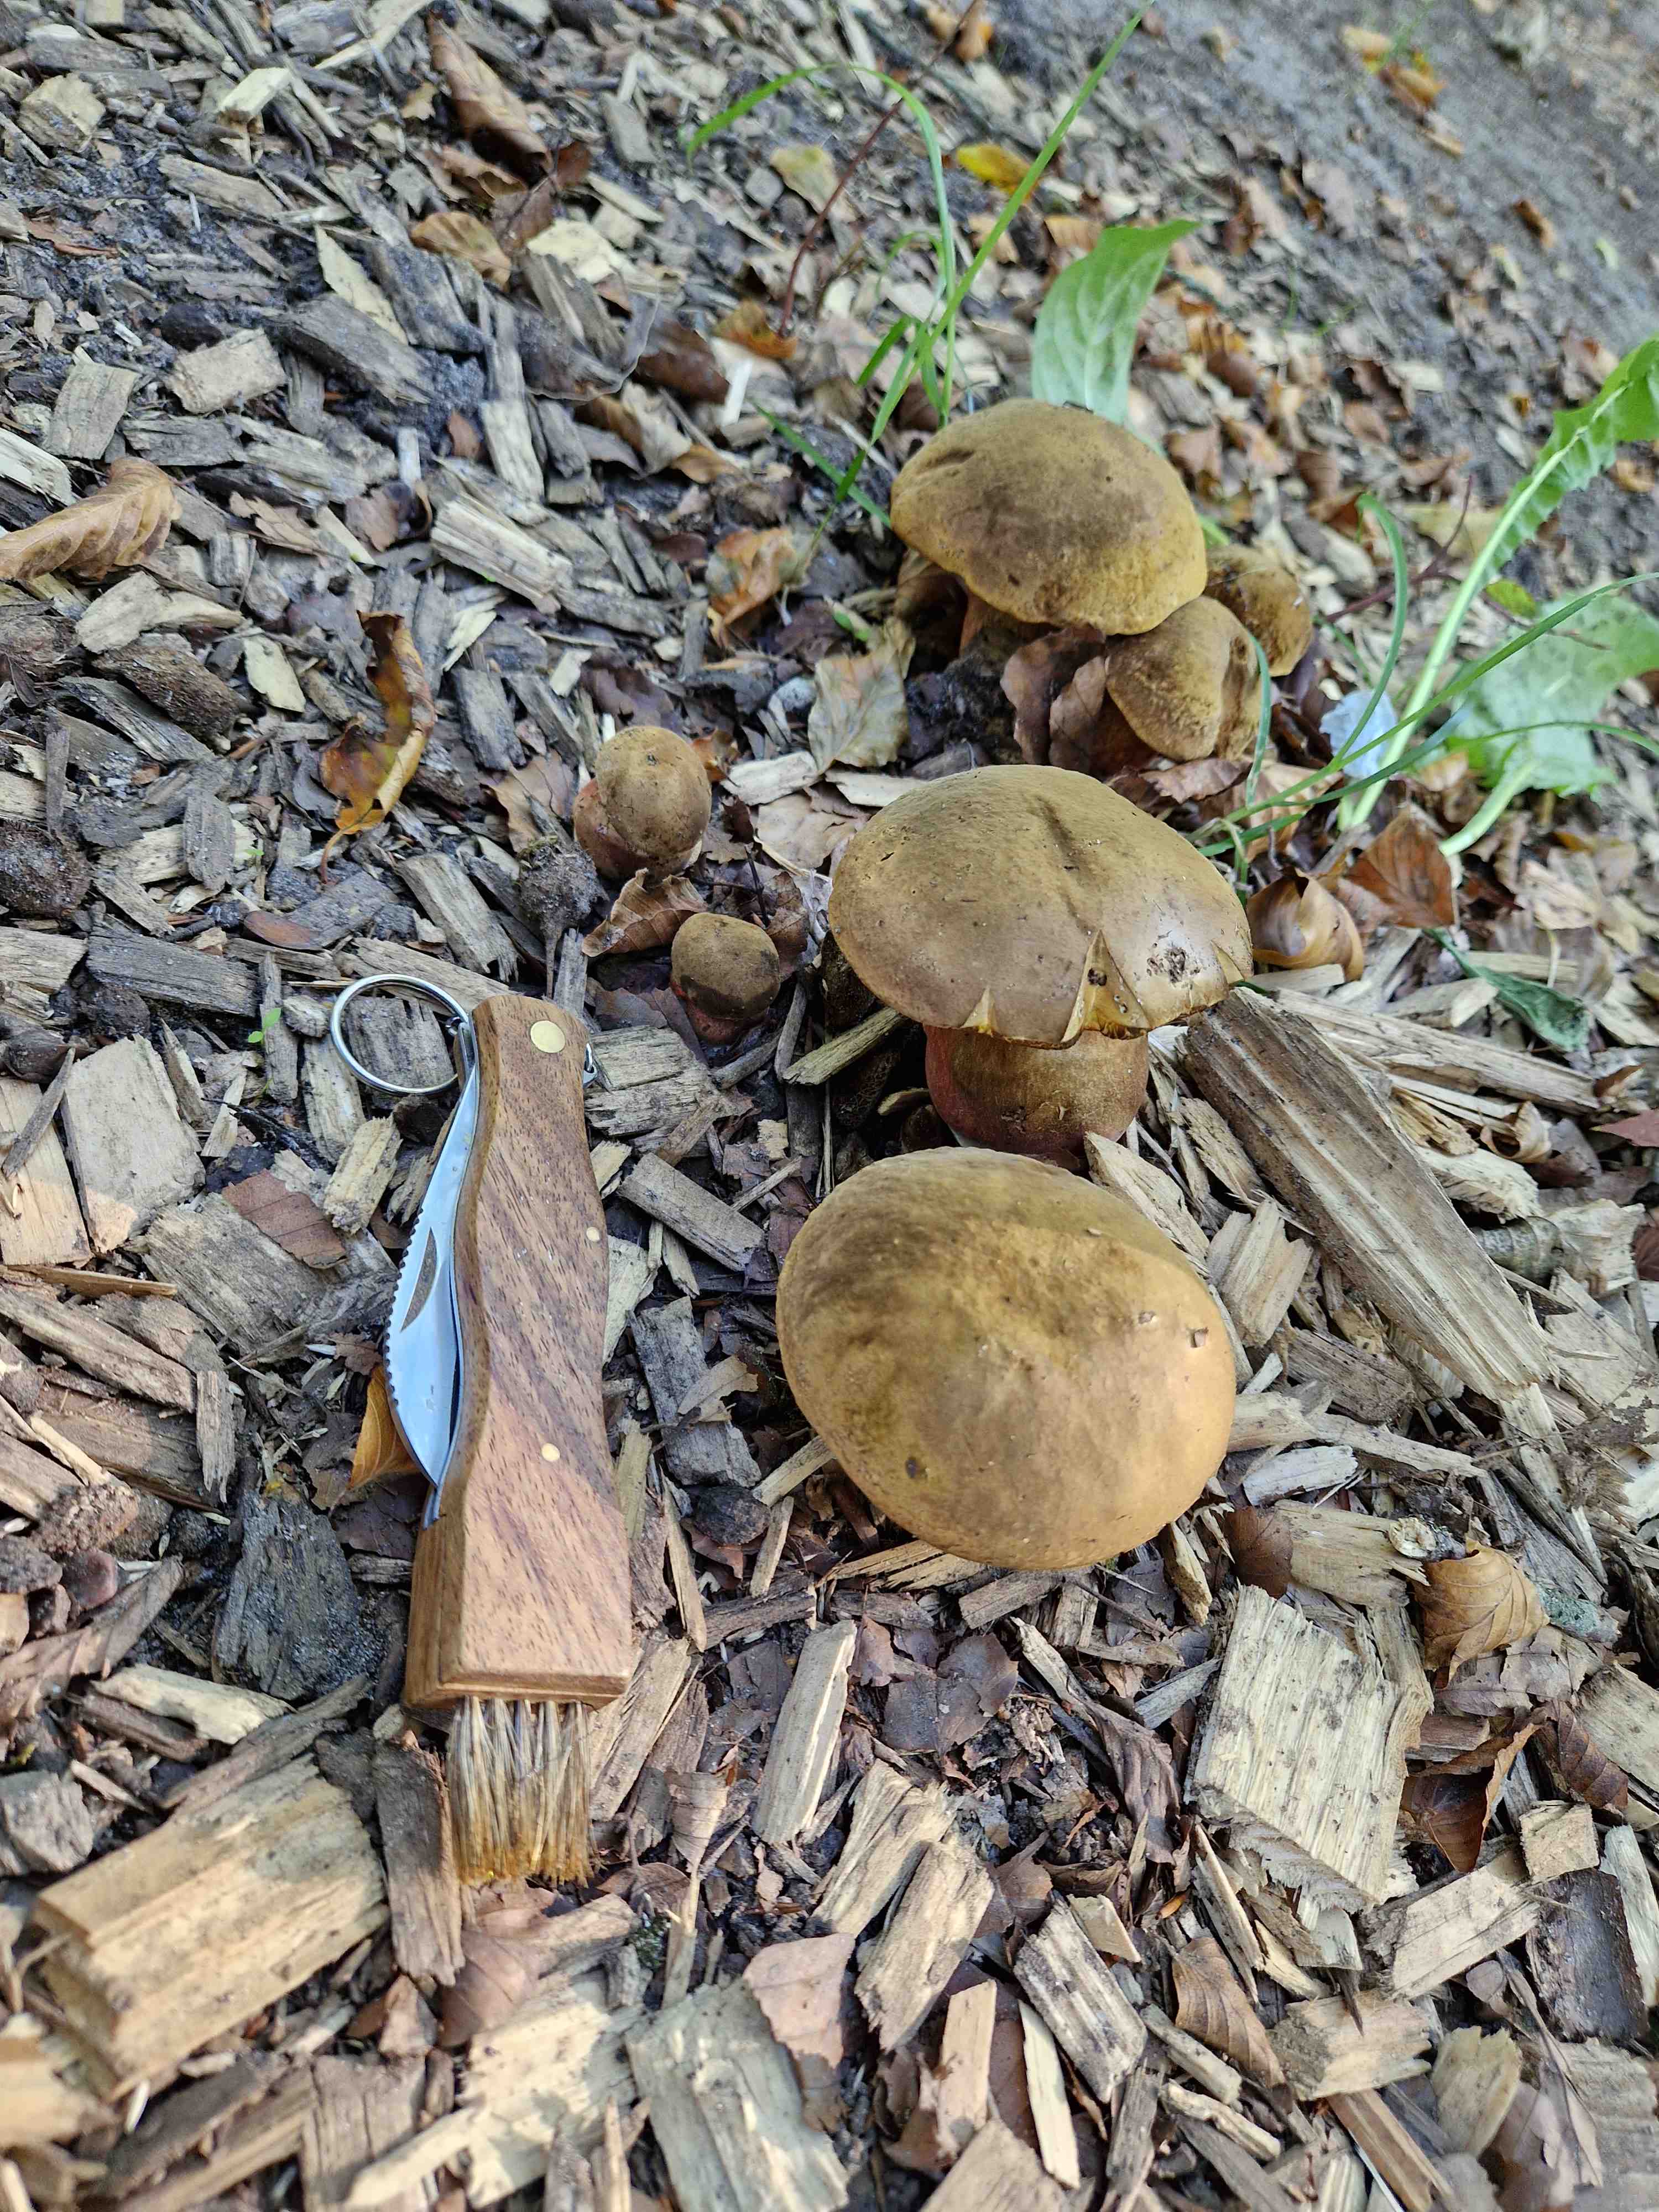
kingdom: Fungi
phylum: Basidiomycota
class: Agaricomycetes
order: Boletales
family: Boletaceae
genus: Neoboletus
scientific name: Neoboletus erythropus
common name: punktstokket indigorørhat
